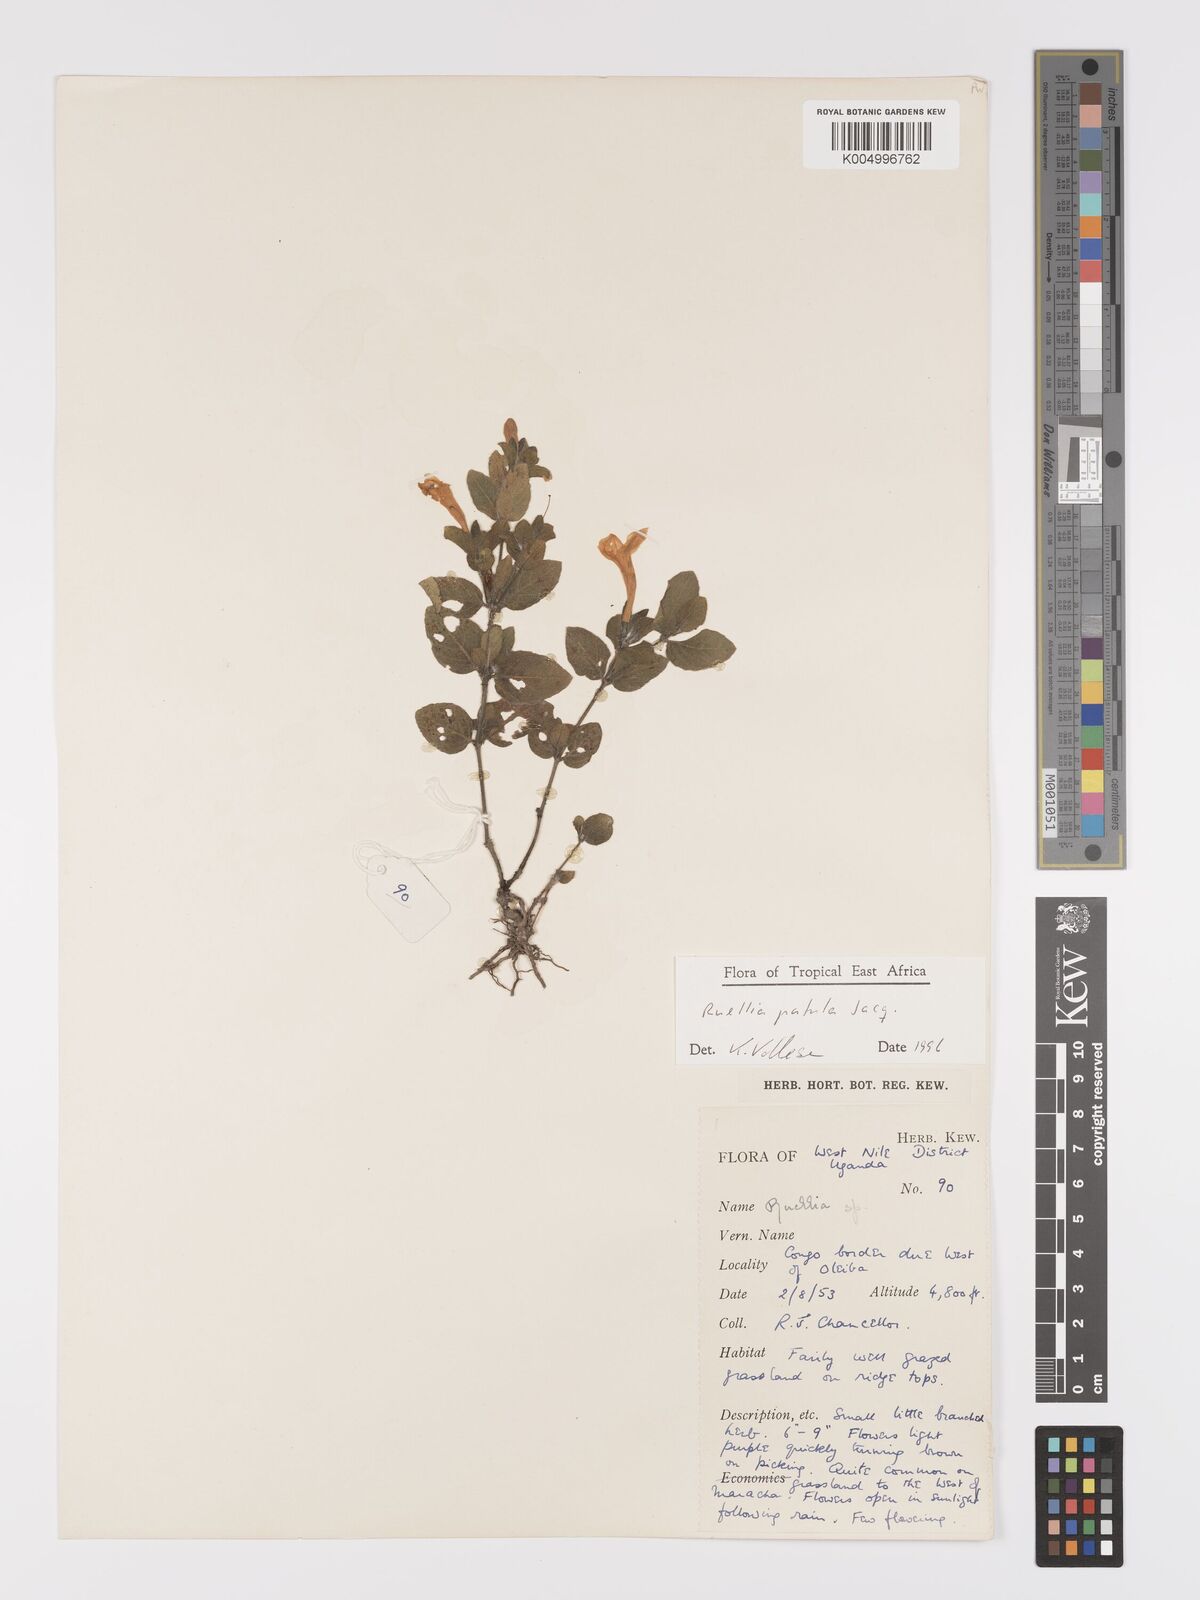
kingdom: Plantae
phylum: Tracheophyta
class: Magnoliopsida
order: Lamiales
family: Acanthaceae
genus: Ruellia
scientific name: Ruellia patula
